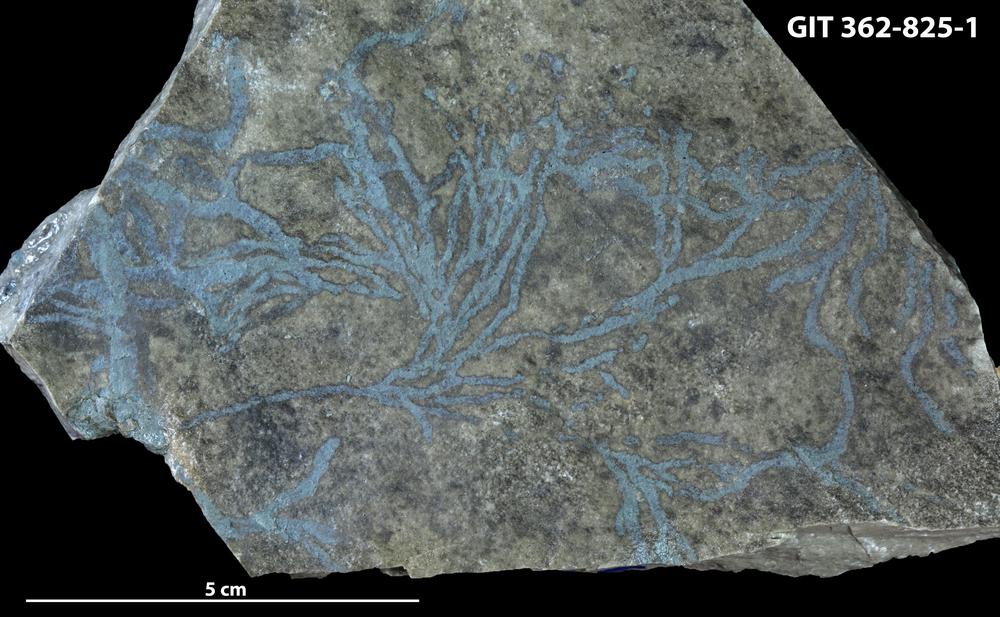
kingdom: Animalia
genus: Chondrites
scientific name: Chondrites
